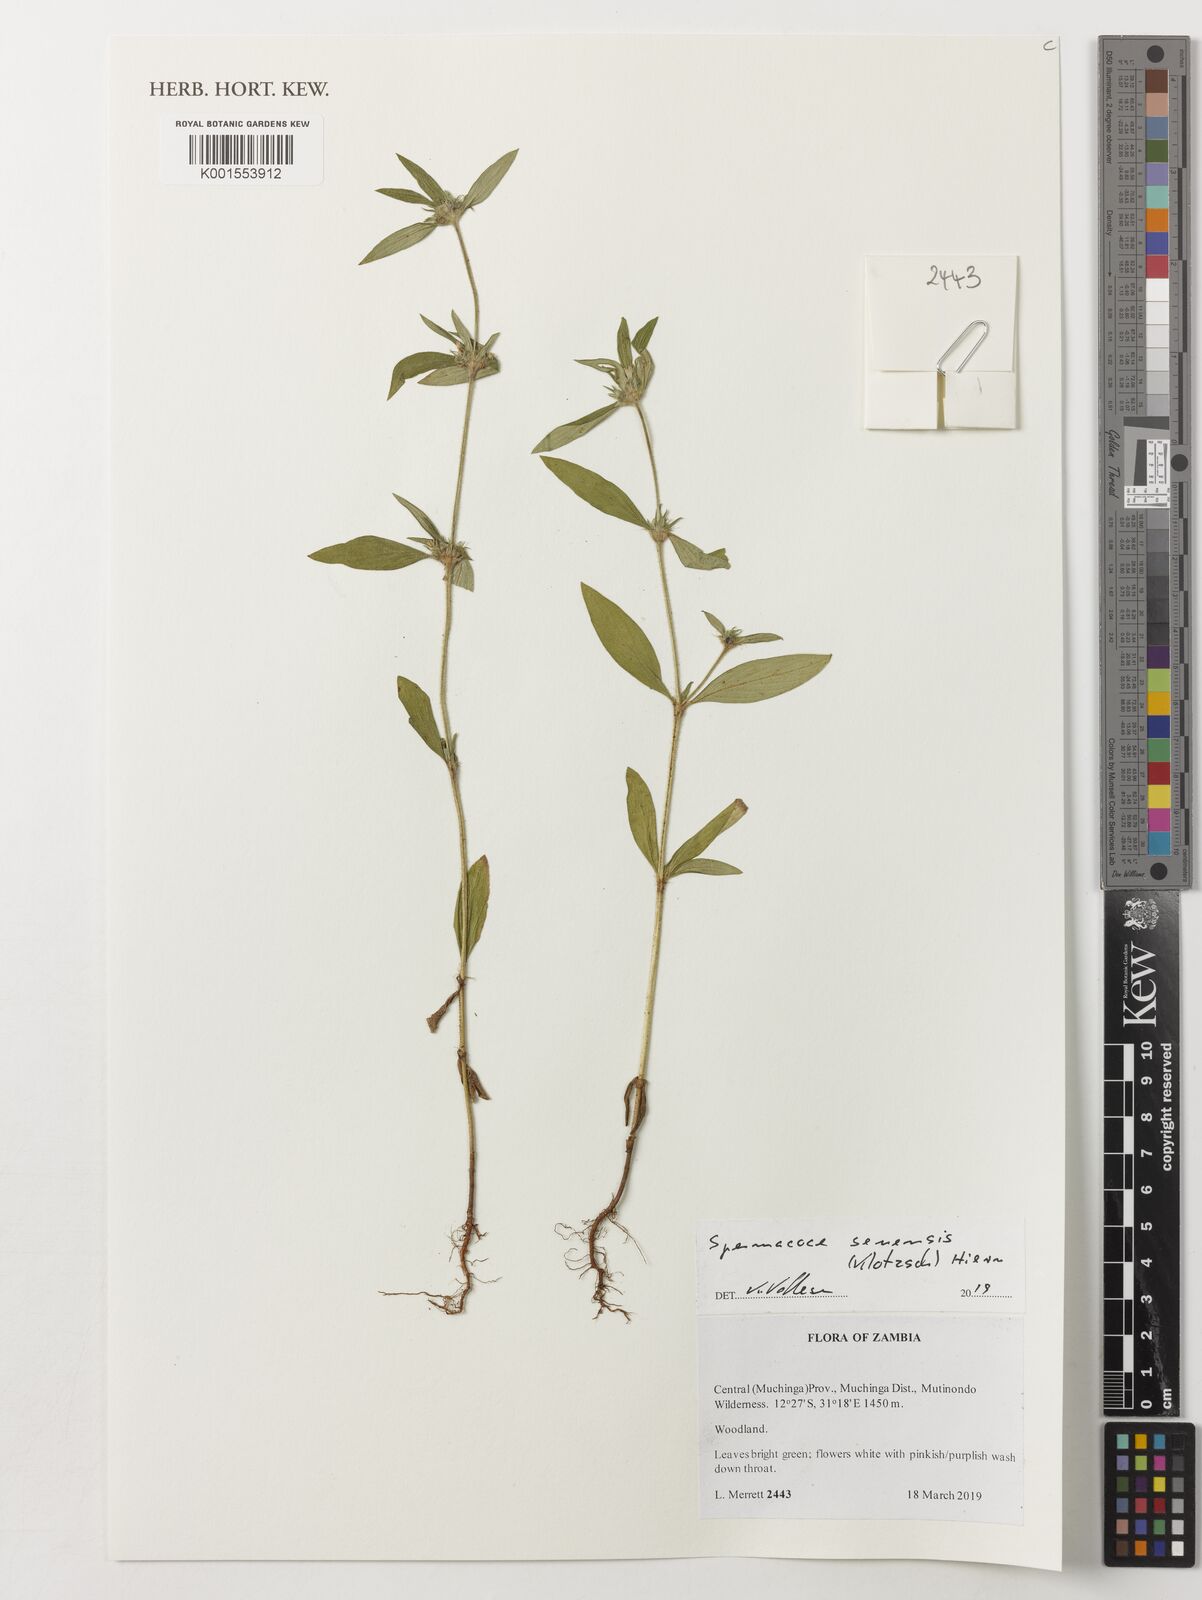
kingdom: Plantae
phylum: Tracheophyta
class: Magnoliopsida
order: Gentianales
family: Rubiaceae
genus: Spermacoce
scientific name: Spermacoce senensis
